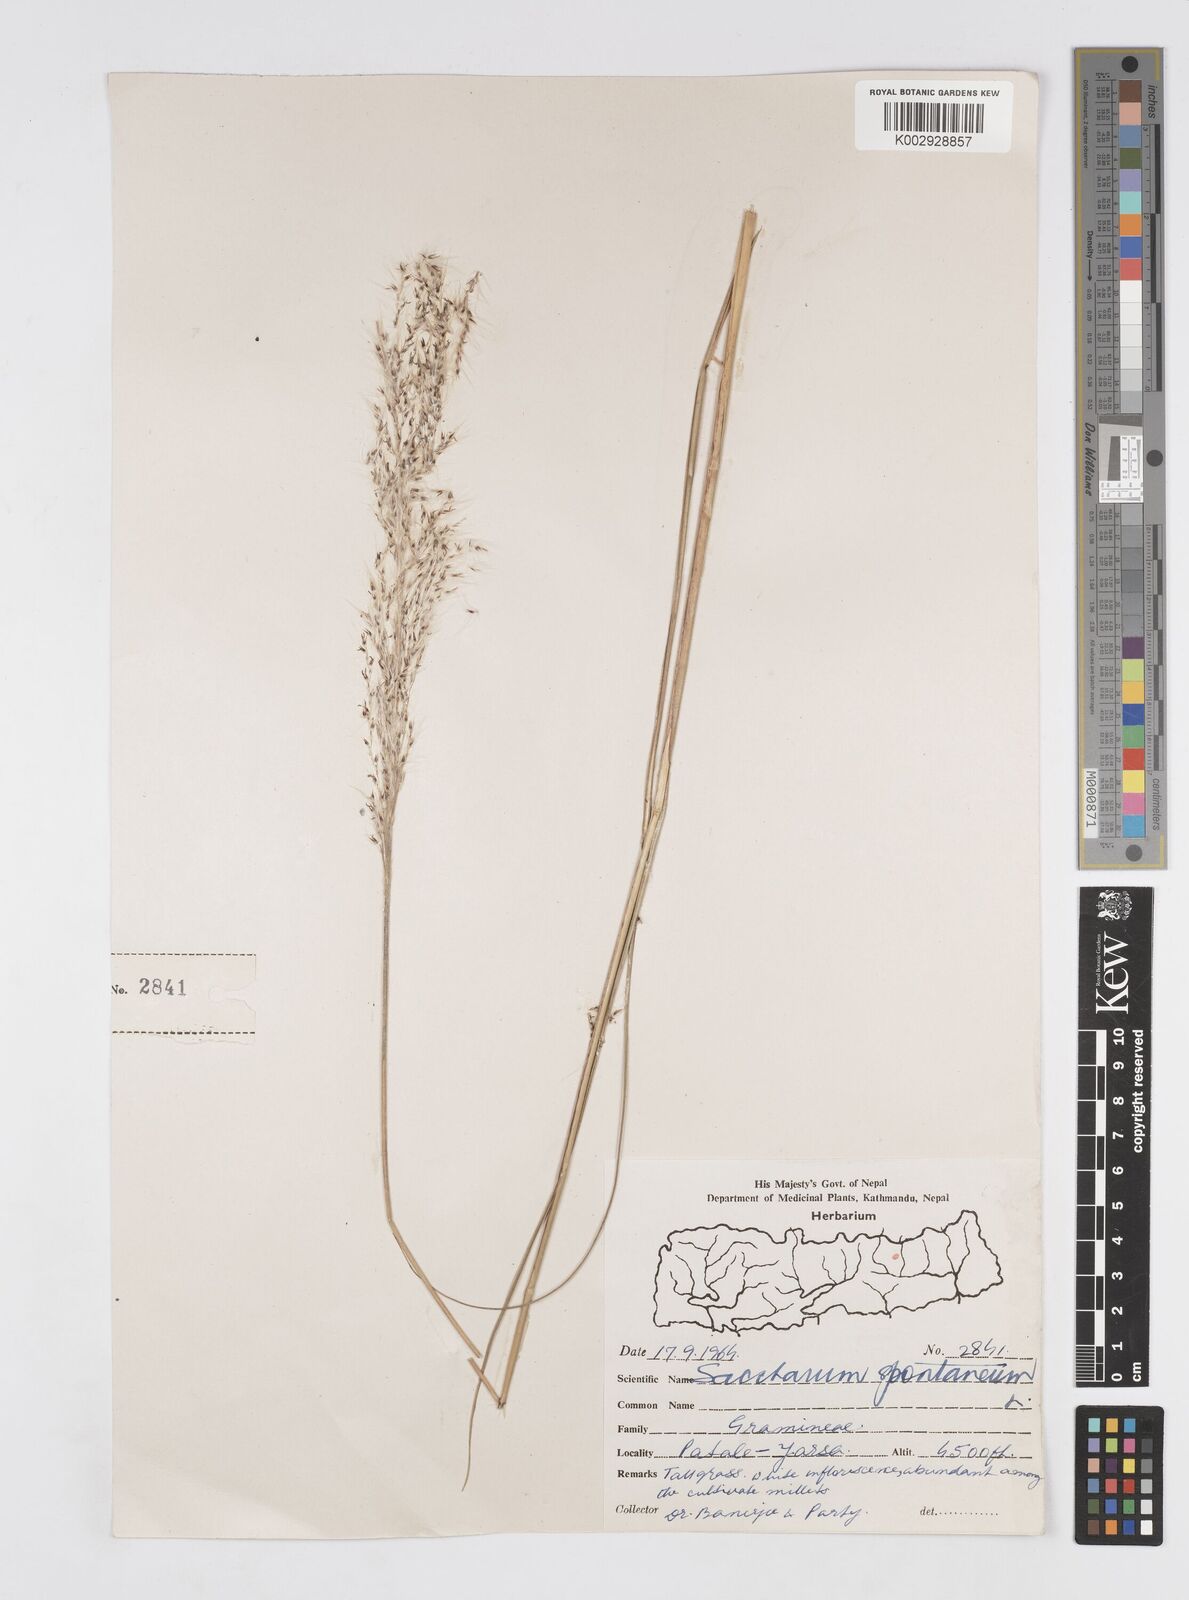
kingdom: Plantae
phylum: Tracheophyta
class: Liliopsida
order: Poales
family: Poaceae
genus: Saccharum
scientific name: Saccharum spontaneum
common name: Wild sugarcane
